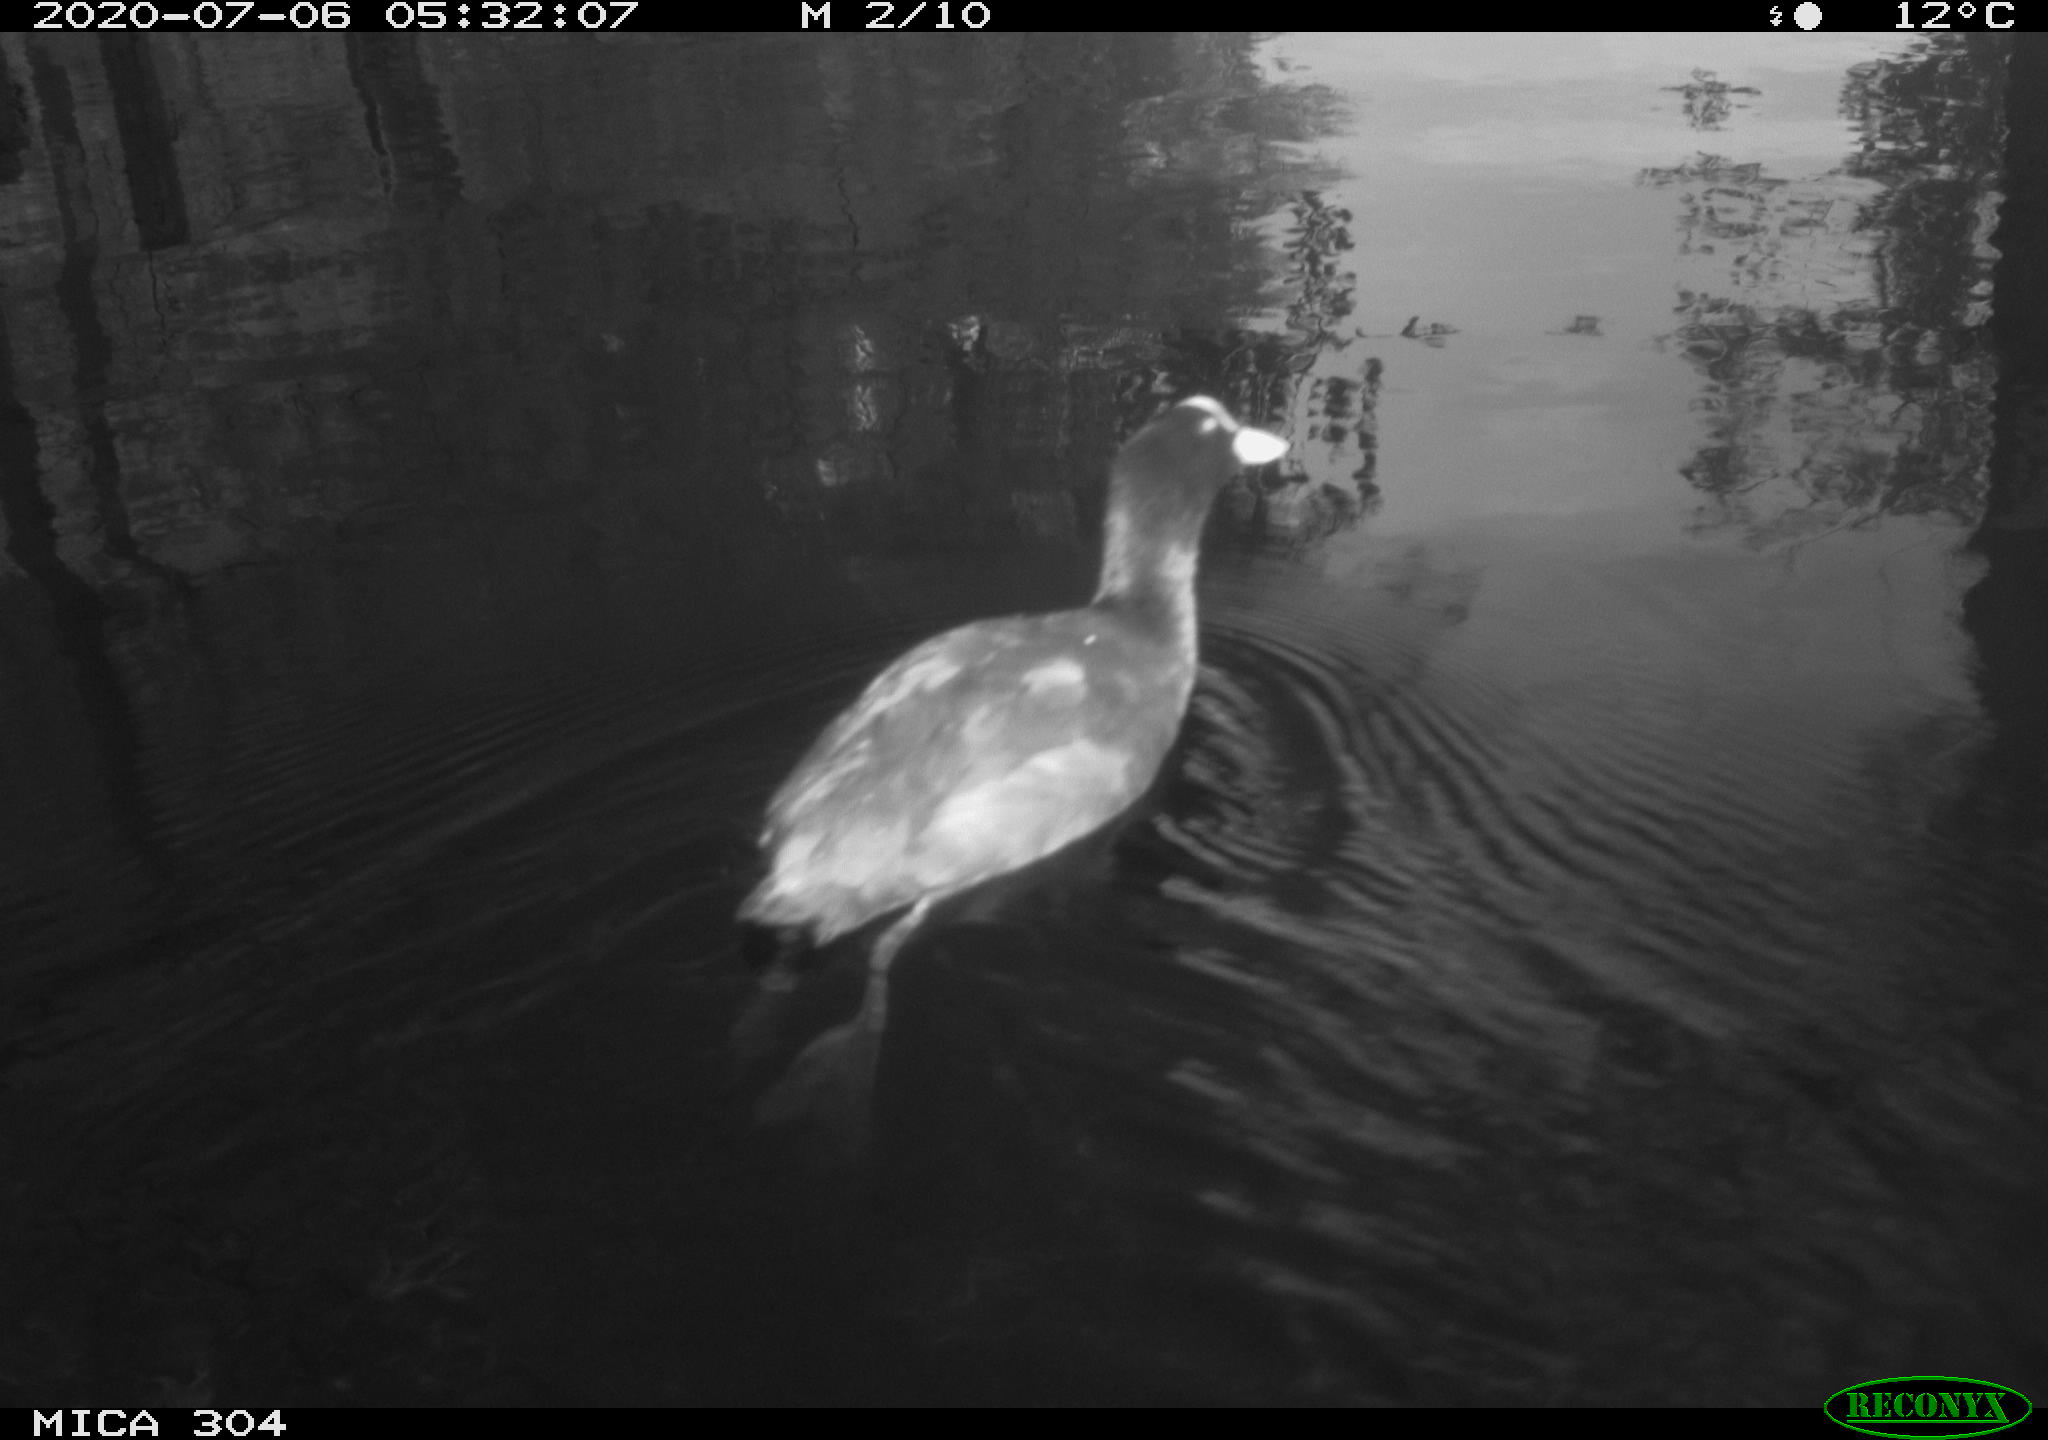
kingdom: Animalia
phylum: Chordata
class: Aves
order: Gruiformes
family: Rallidae
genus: Fulica
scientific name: Fulica atra
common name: Eurasian coot
